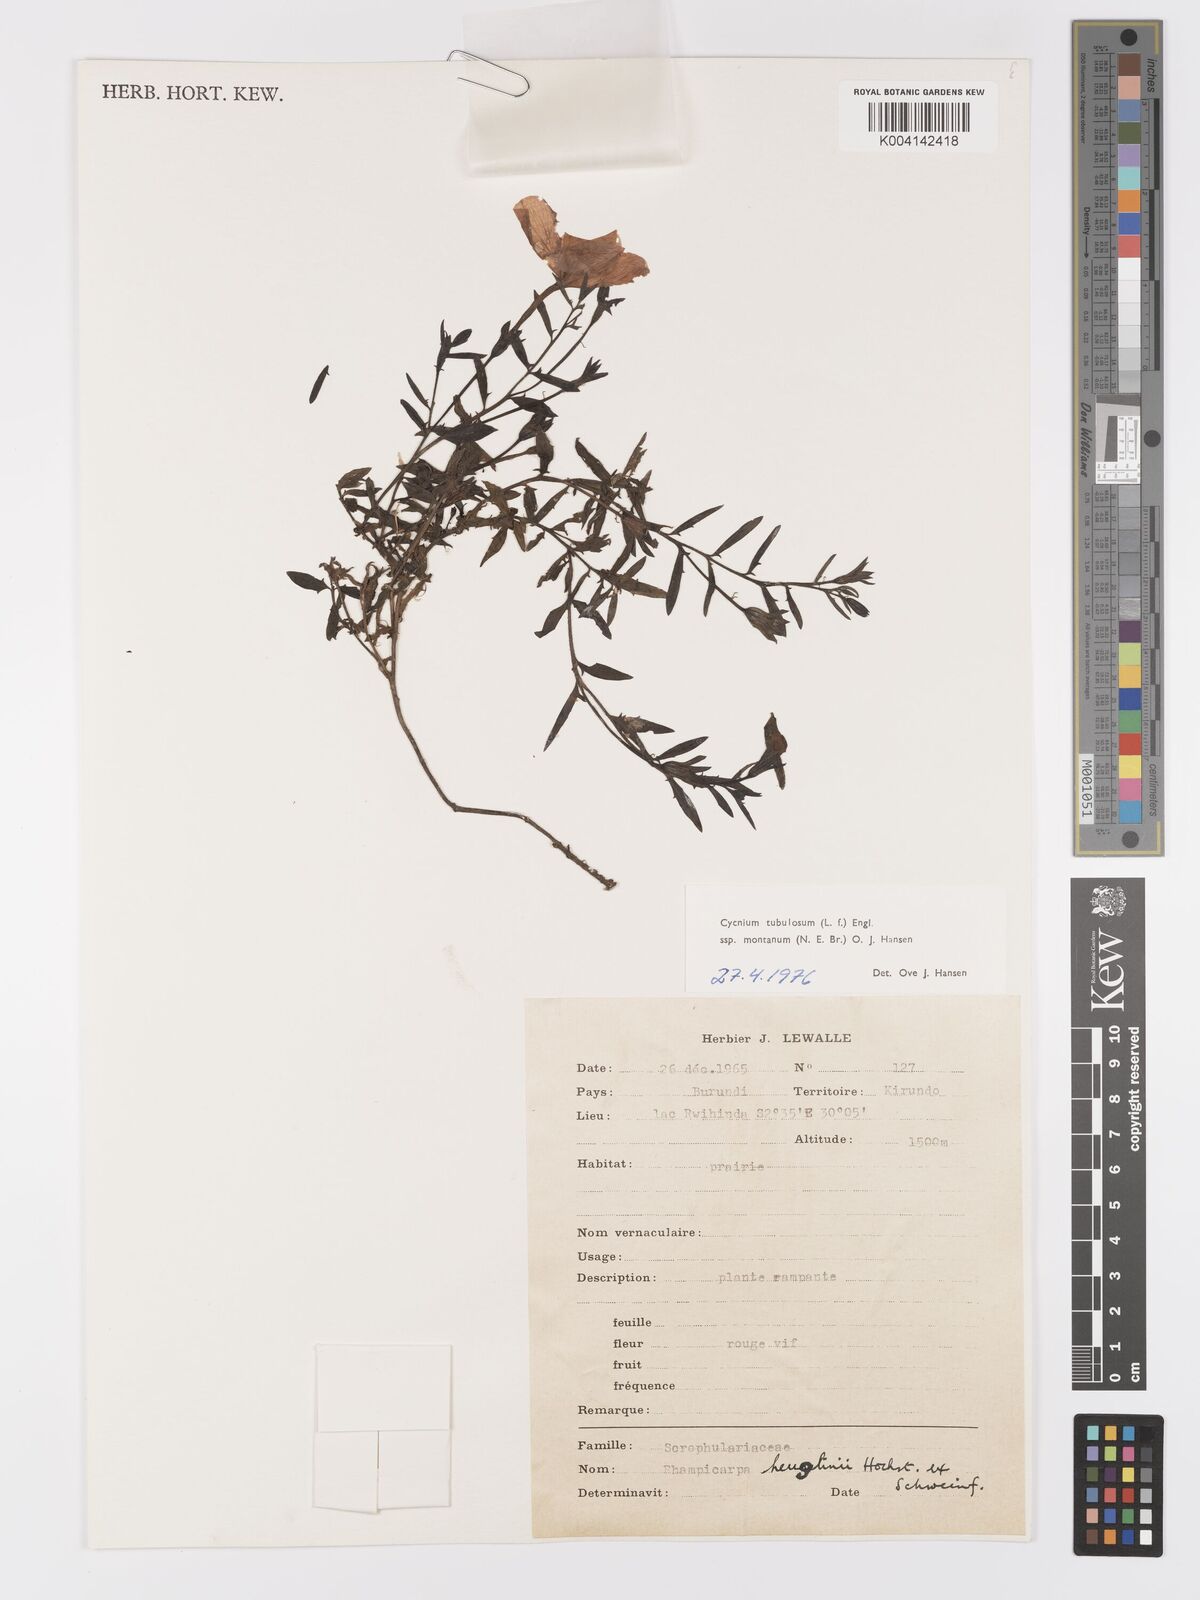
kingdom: Plantae
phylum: Tracheophyta
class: Magnoliopsida
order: Lamiales
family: Orobanchaceae
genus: Cycnium
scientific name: Cycnium tubulosum
